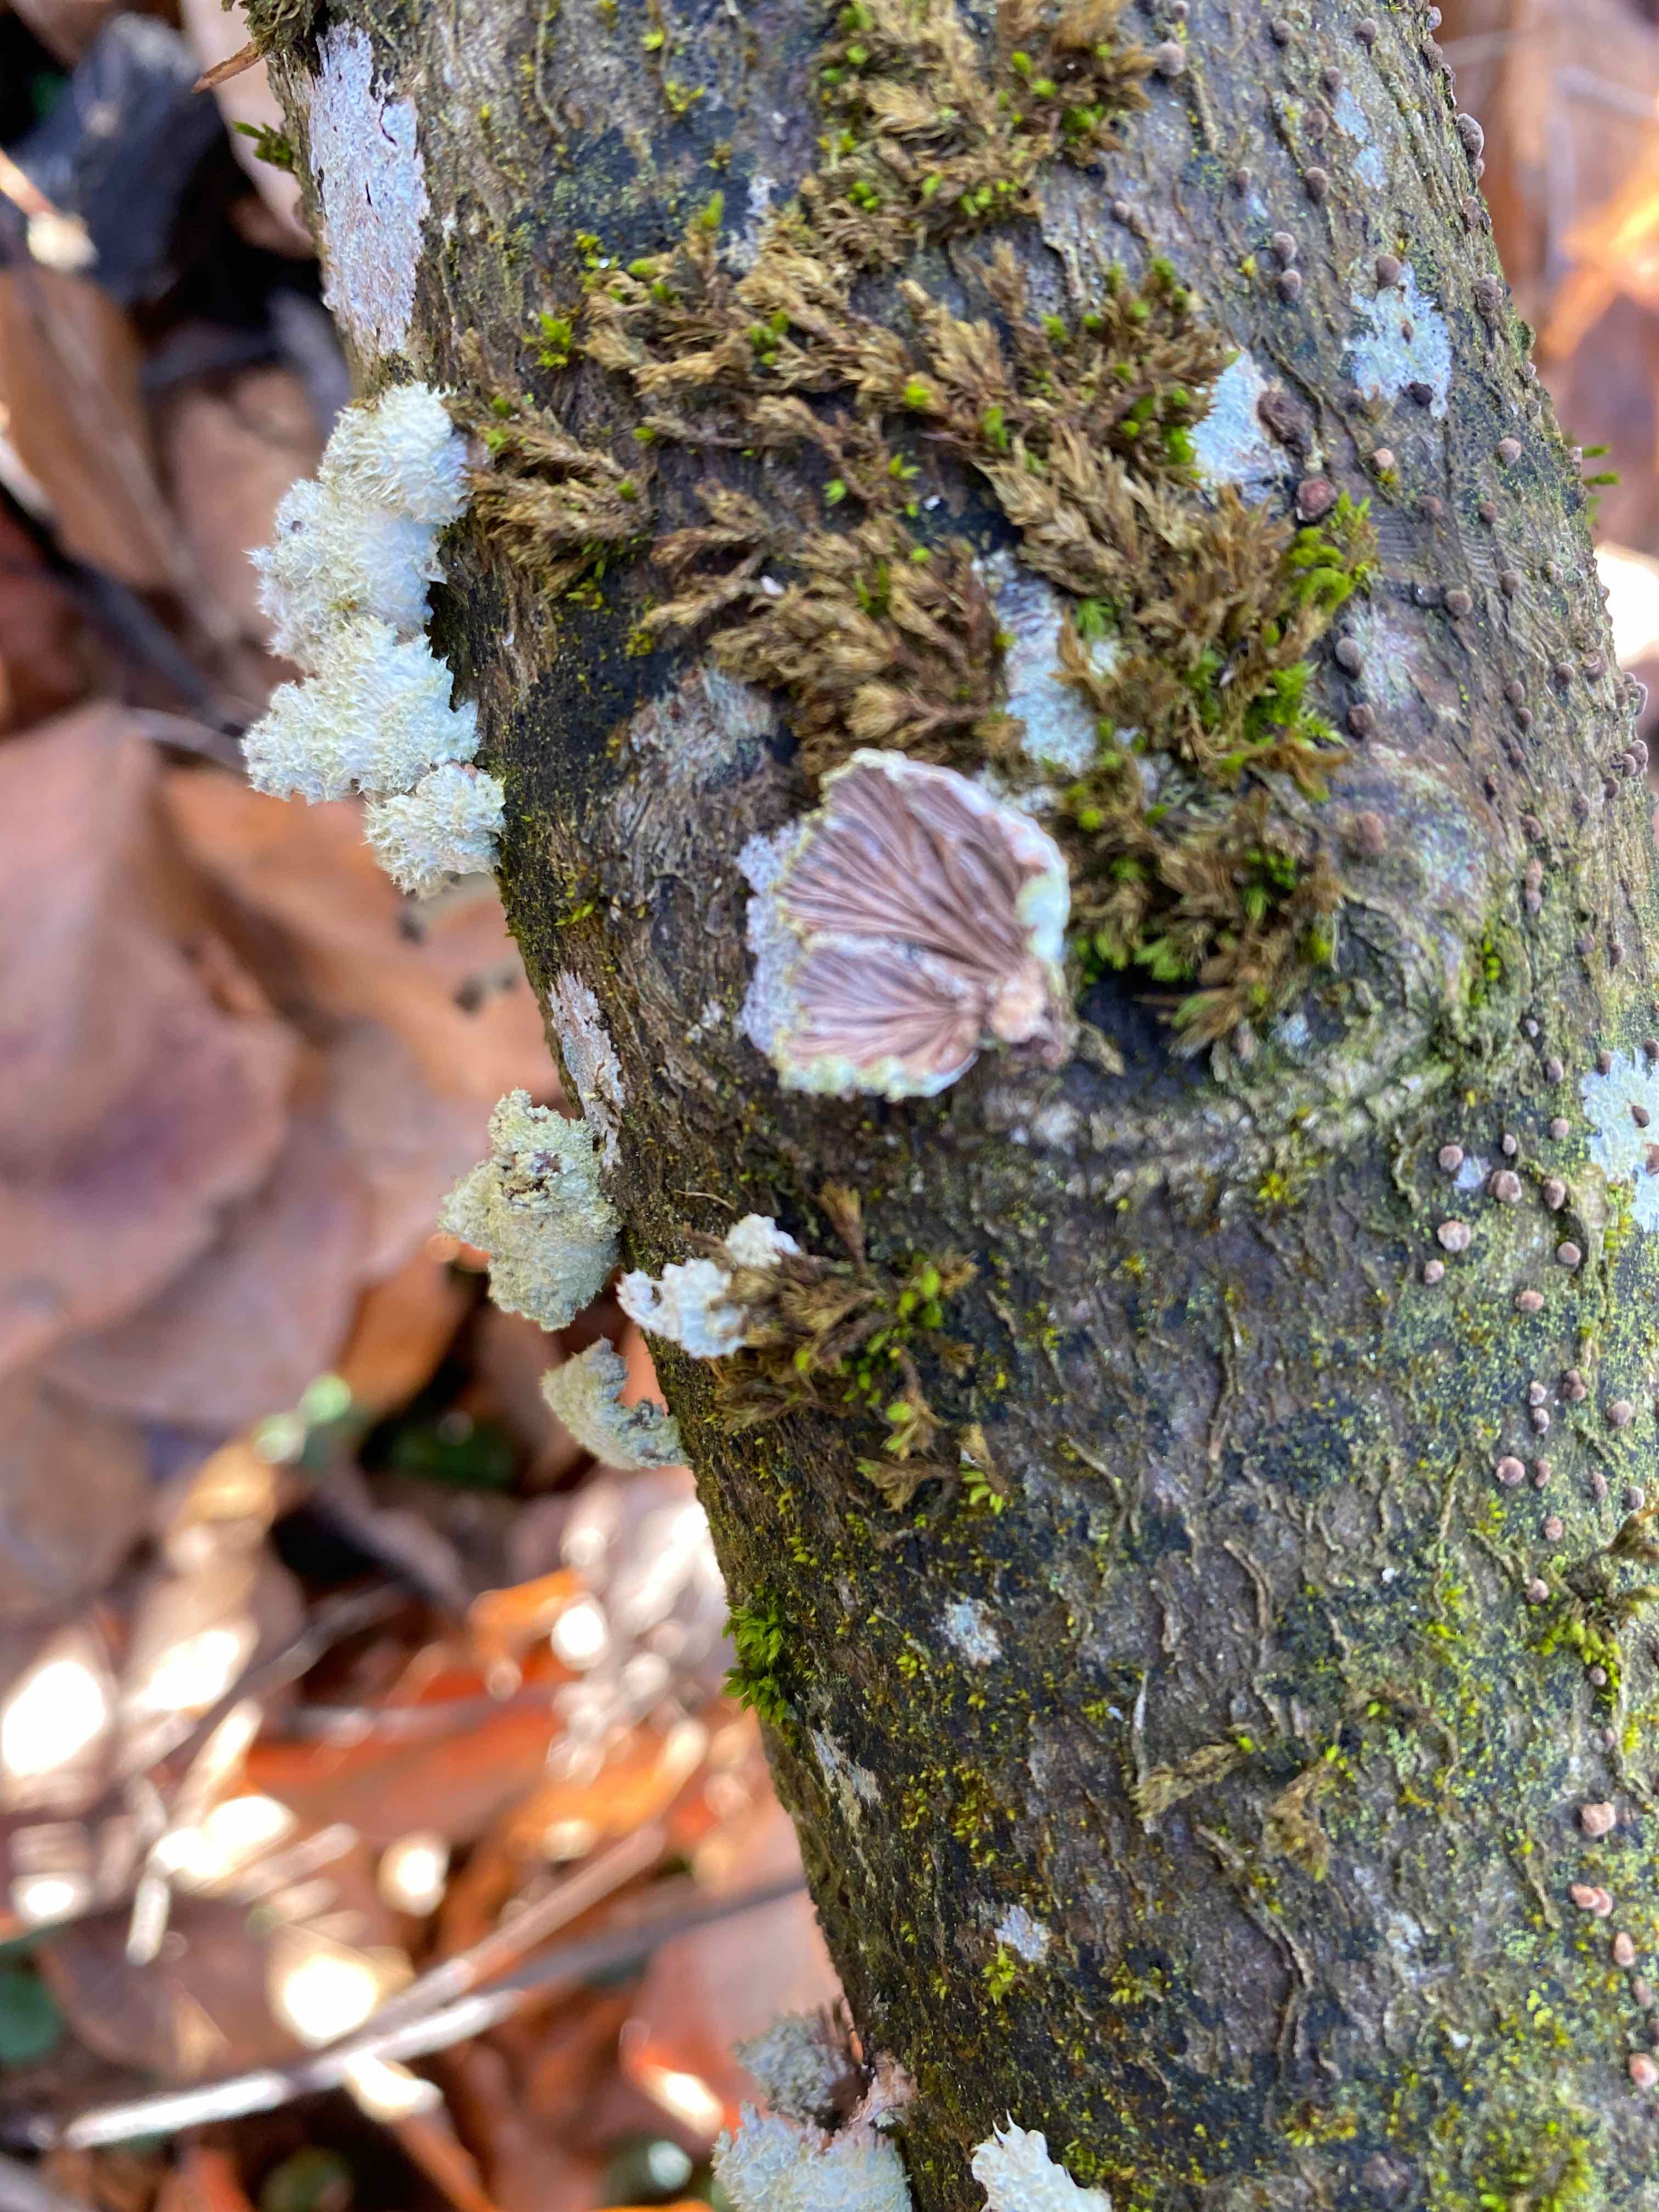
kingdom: Fungi
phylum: Basidiomycota
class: Agaricomycetes
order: Agaricales
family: Schizophyllaceae
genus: Schizophyllum
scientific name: Schizophyllum commune
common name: kløvblad
